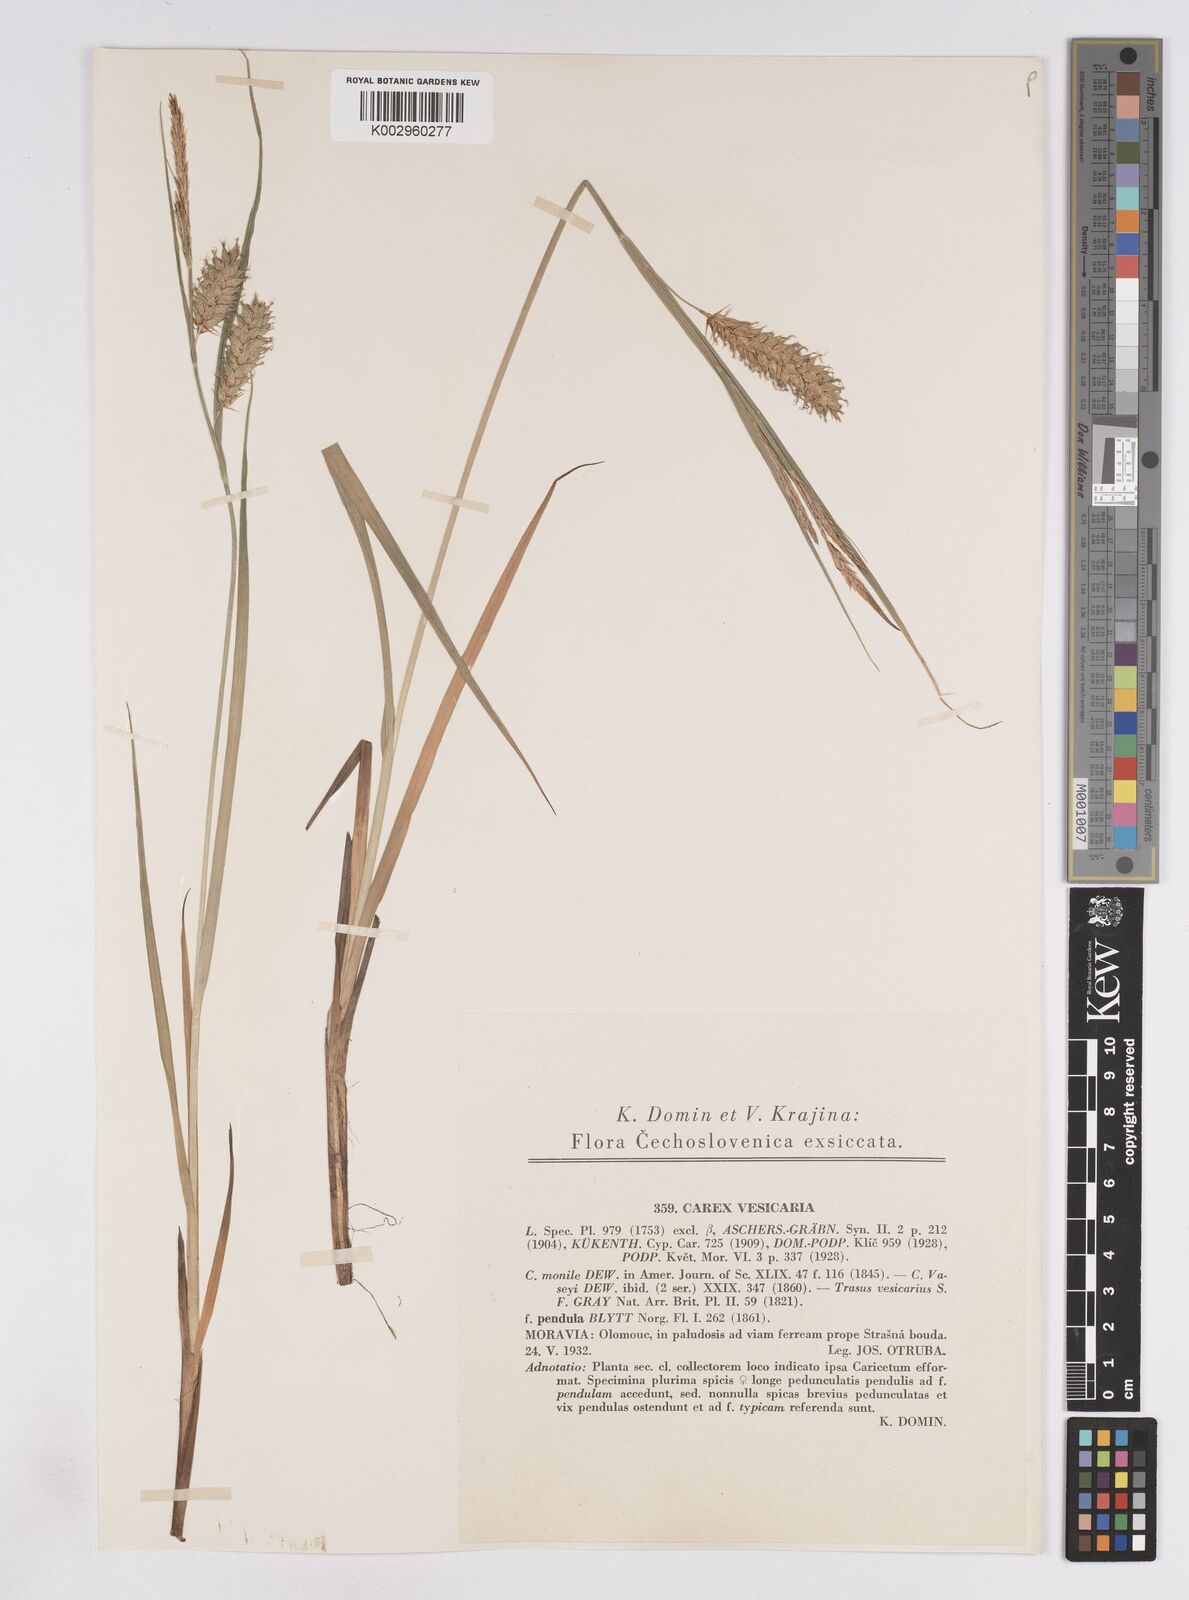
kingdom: Plantae
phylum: Tracheophyta
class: Liliopsida
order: Poales
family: Cyperaceae
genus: Carex
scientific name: Carex vesicaria
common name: Bladder-sedge
